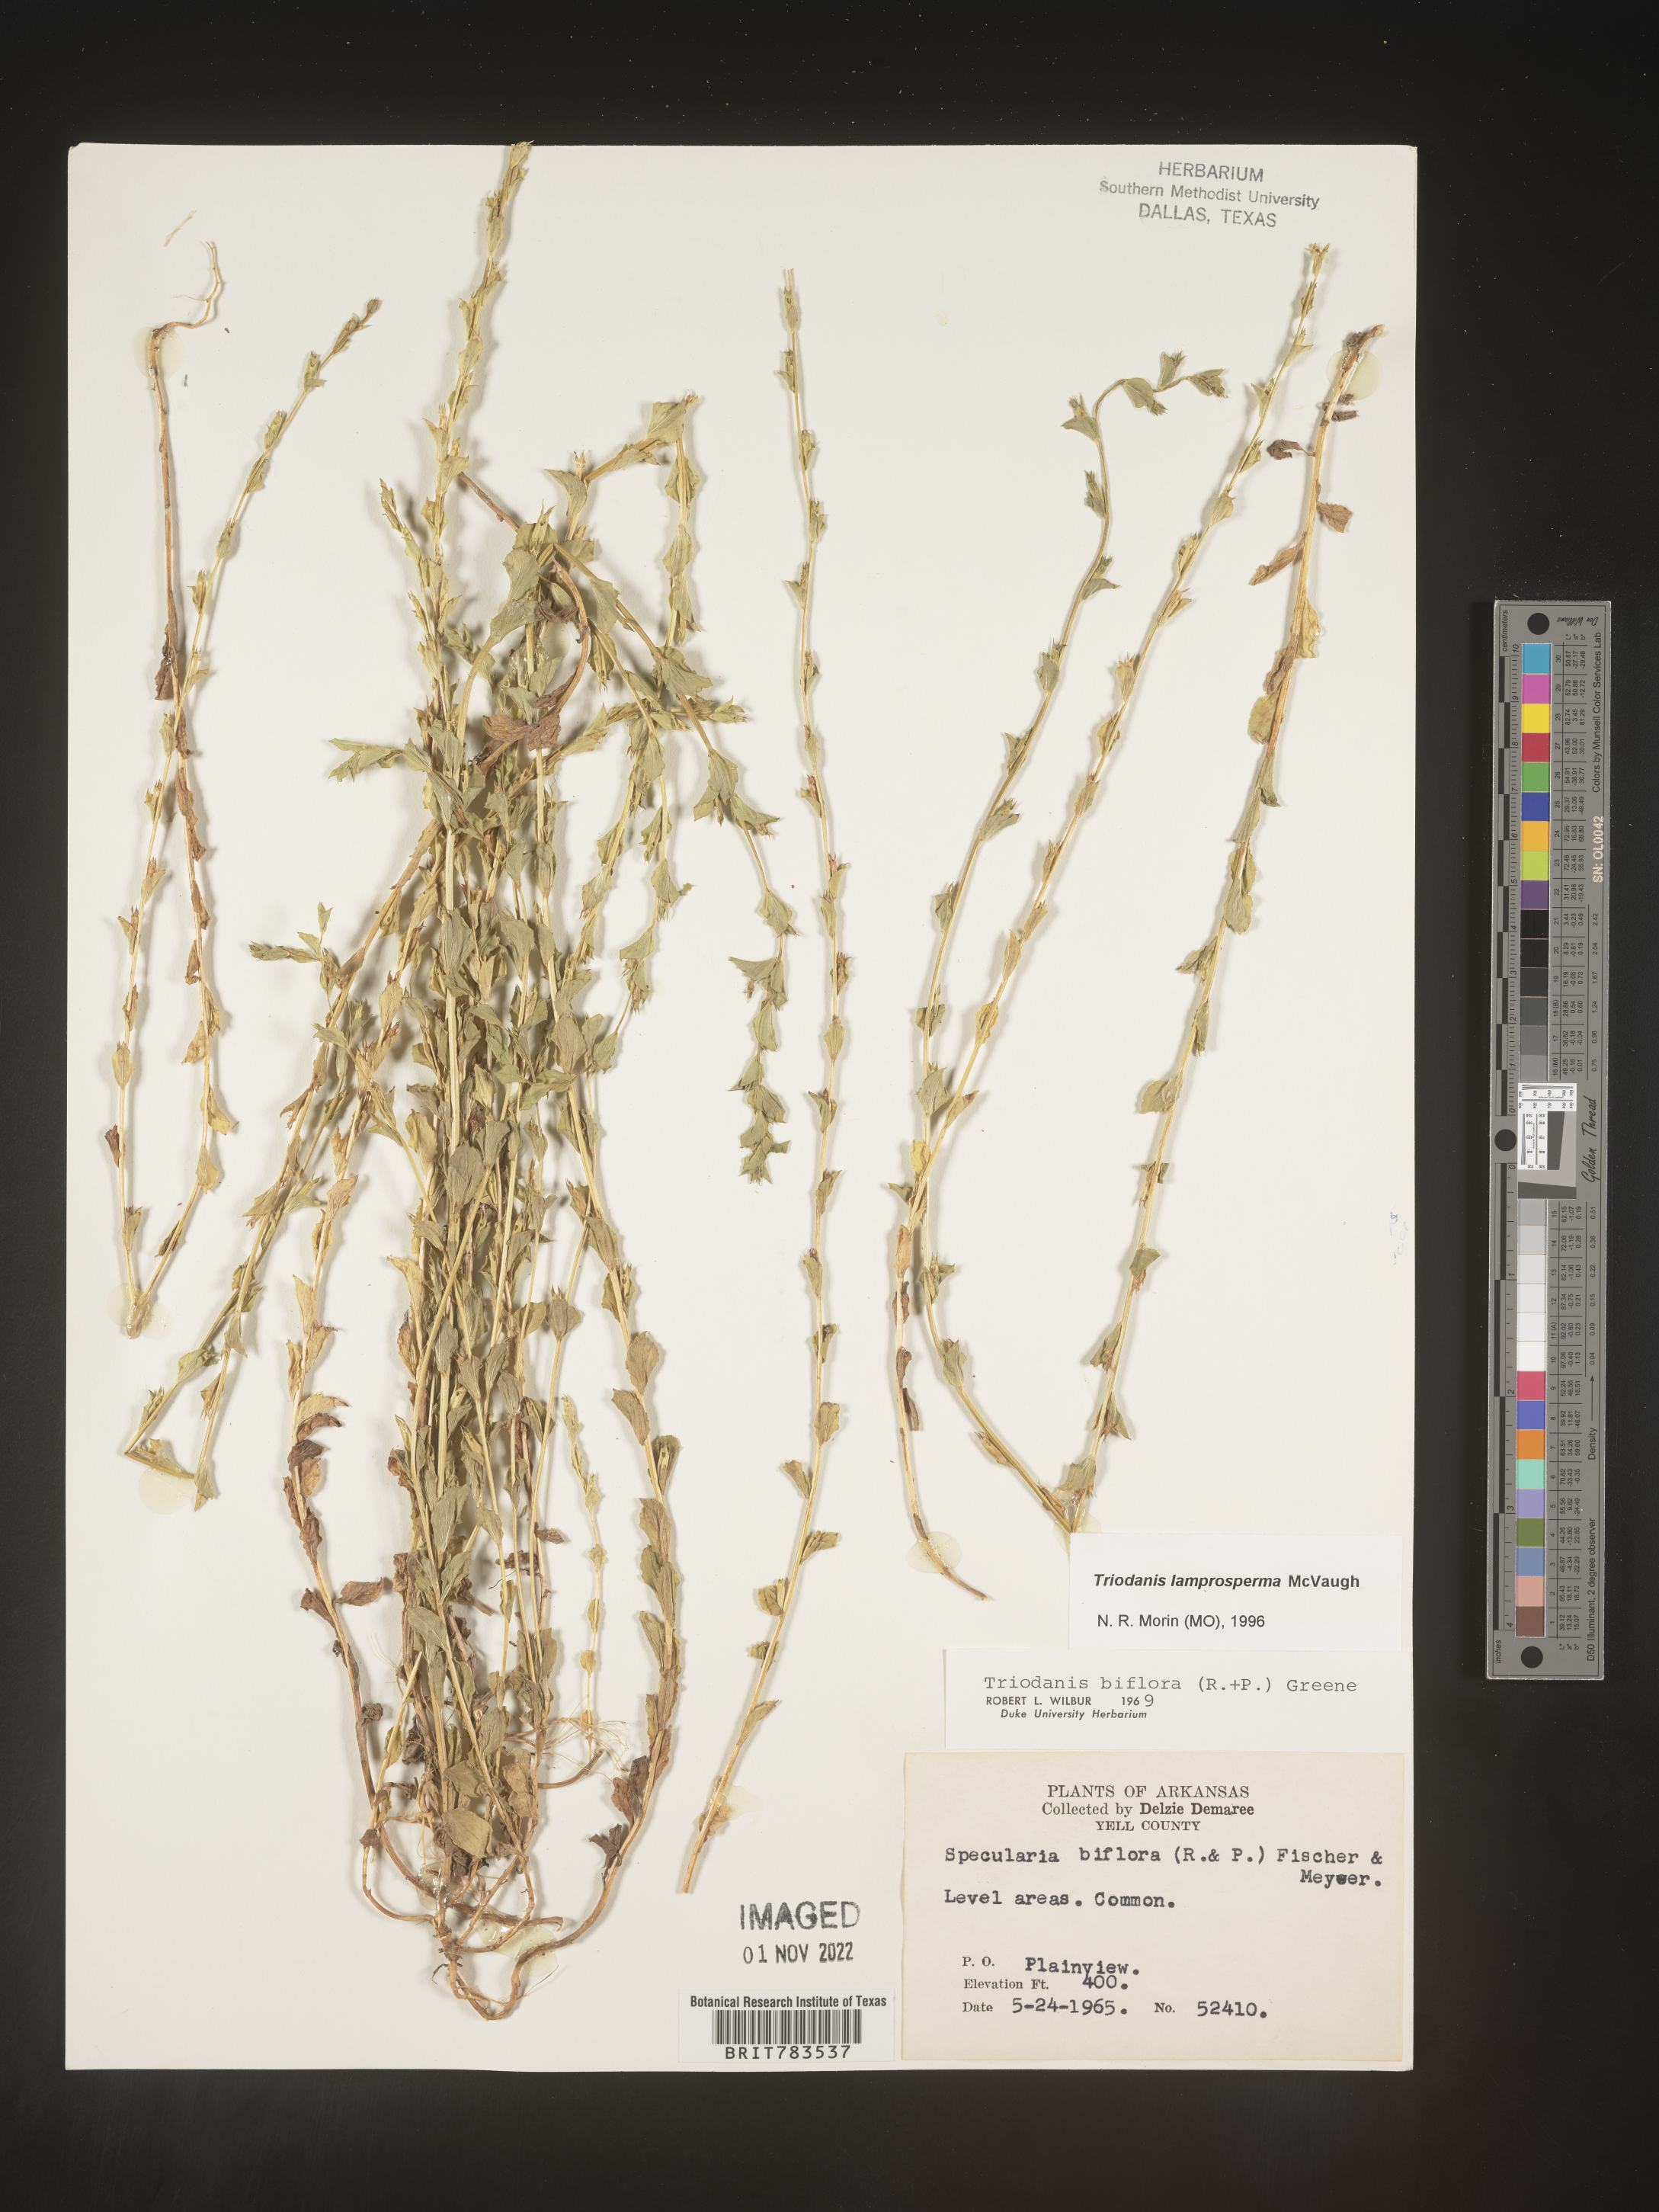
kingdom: Plantae
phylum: Tracheophyta
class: Magnoliopsida
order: Asterales
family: Campanulaceae
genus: Triodanis
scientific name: Triodanis lamprosperma
